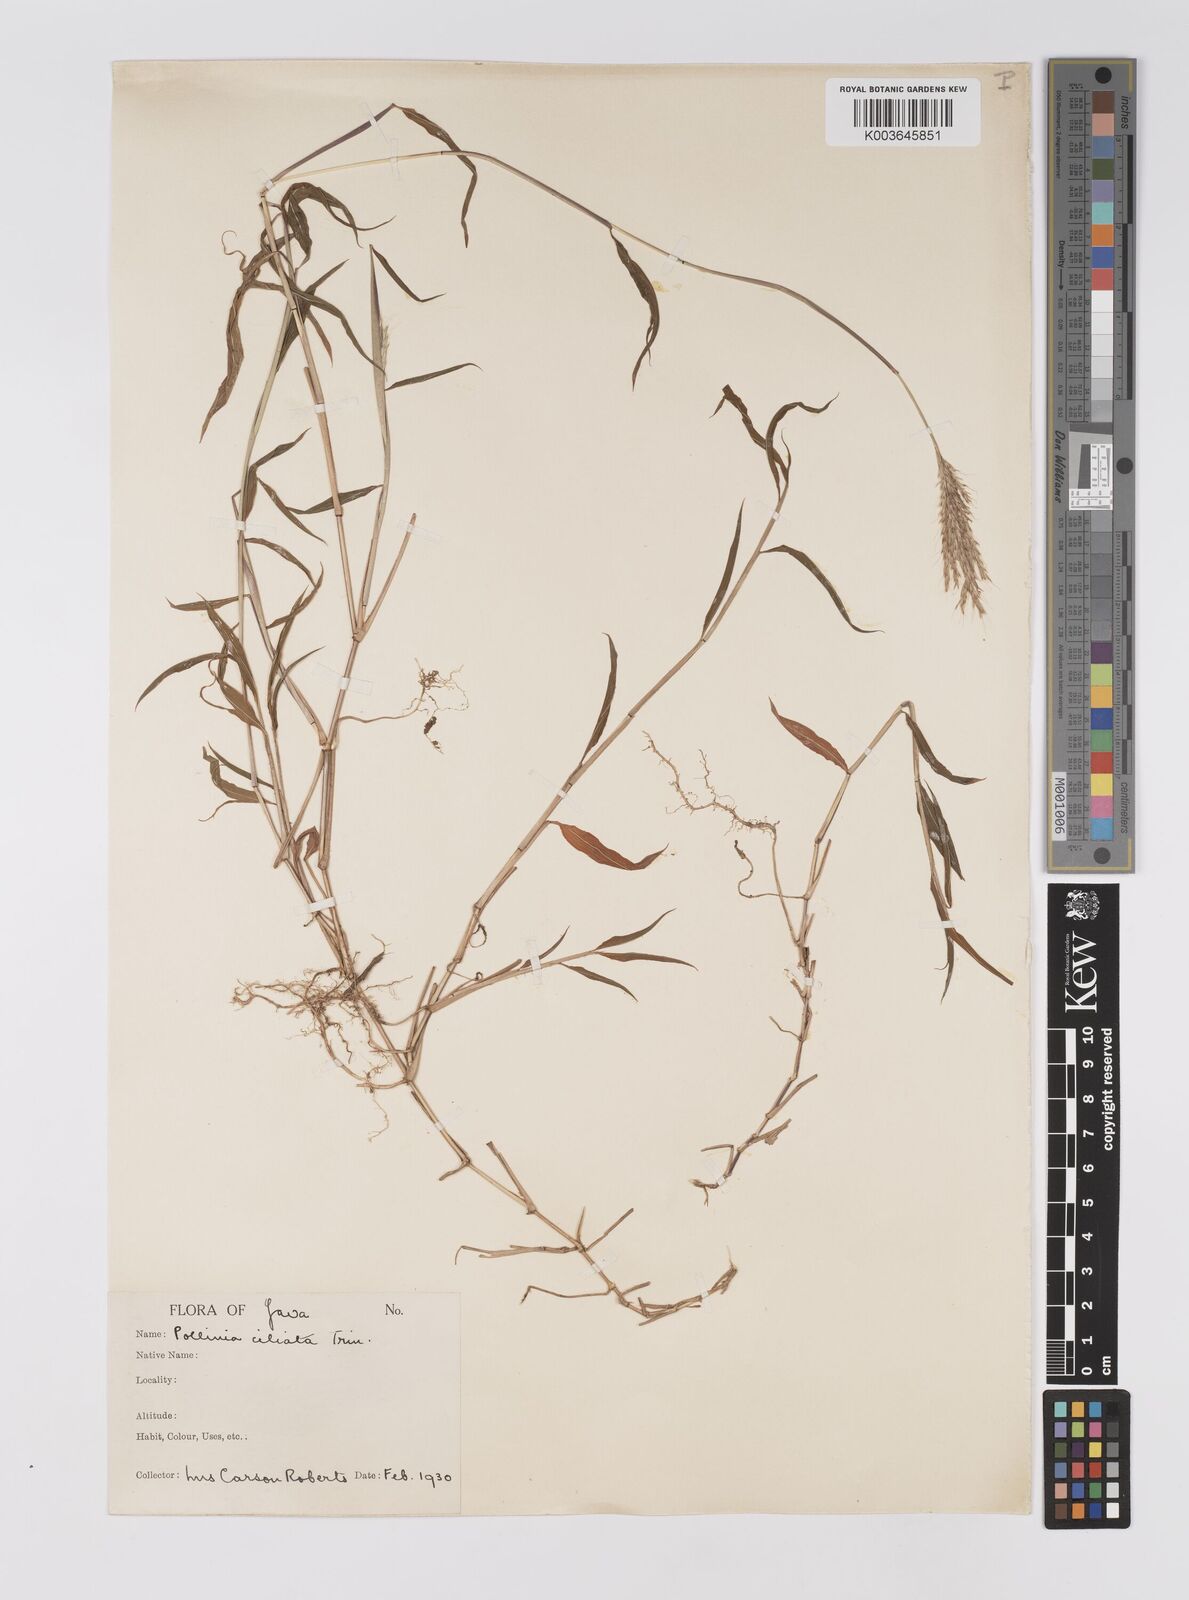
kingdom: Plantae
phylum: Tracheophyta
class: Liliopsida
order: Poales
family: Poaceae
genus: Microstegium
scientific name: Microstegium fasciculatum
